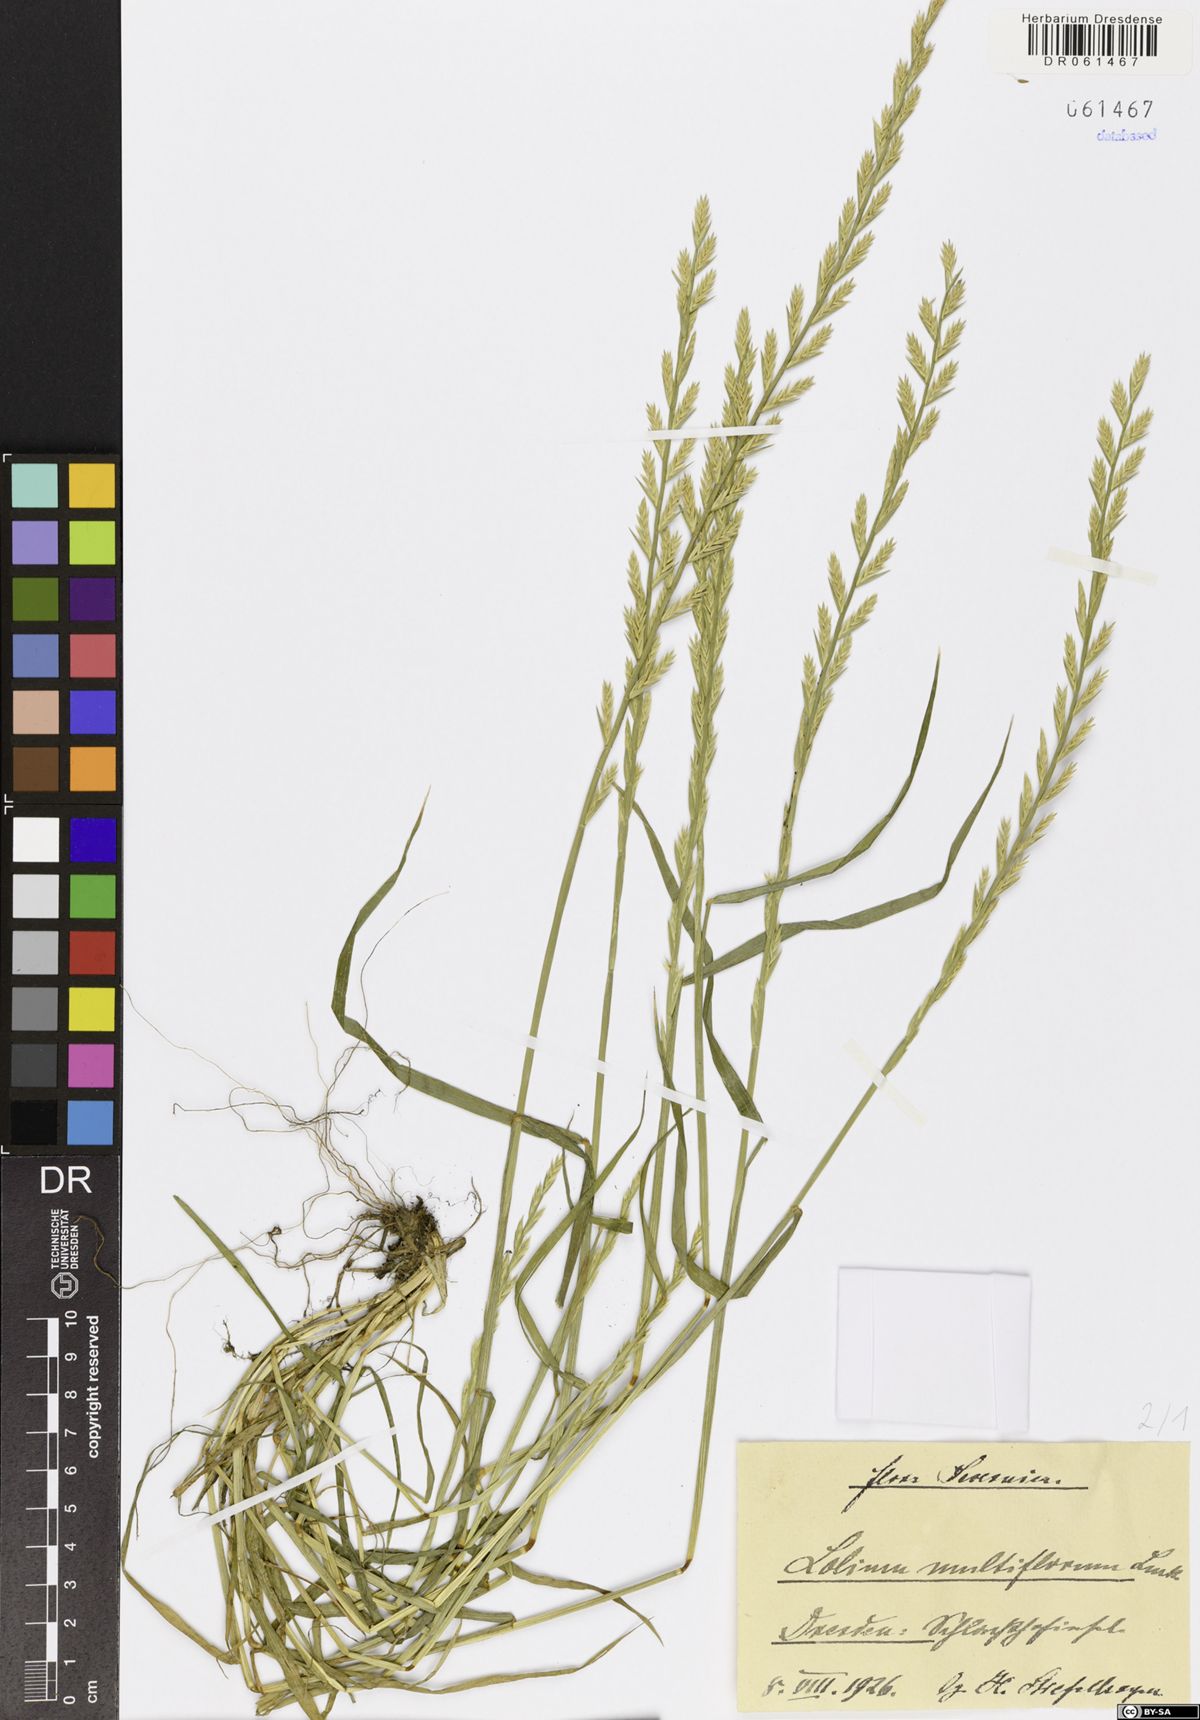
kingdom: Plantae
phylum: Tracheophyta
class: Liliopsida
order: Poales
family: Poaceae
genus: Lolium
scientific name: Lolium multiflorum
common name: Annual ryegrass
